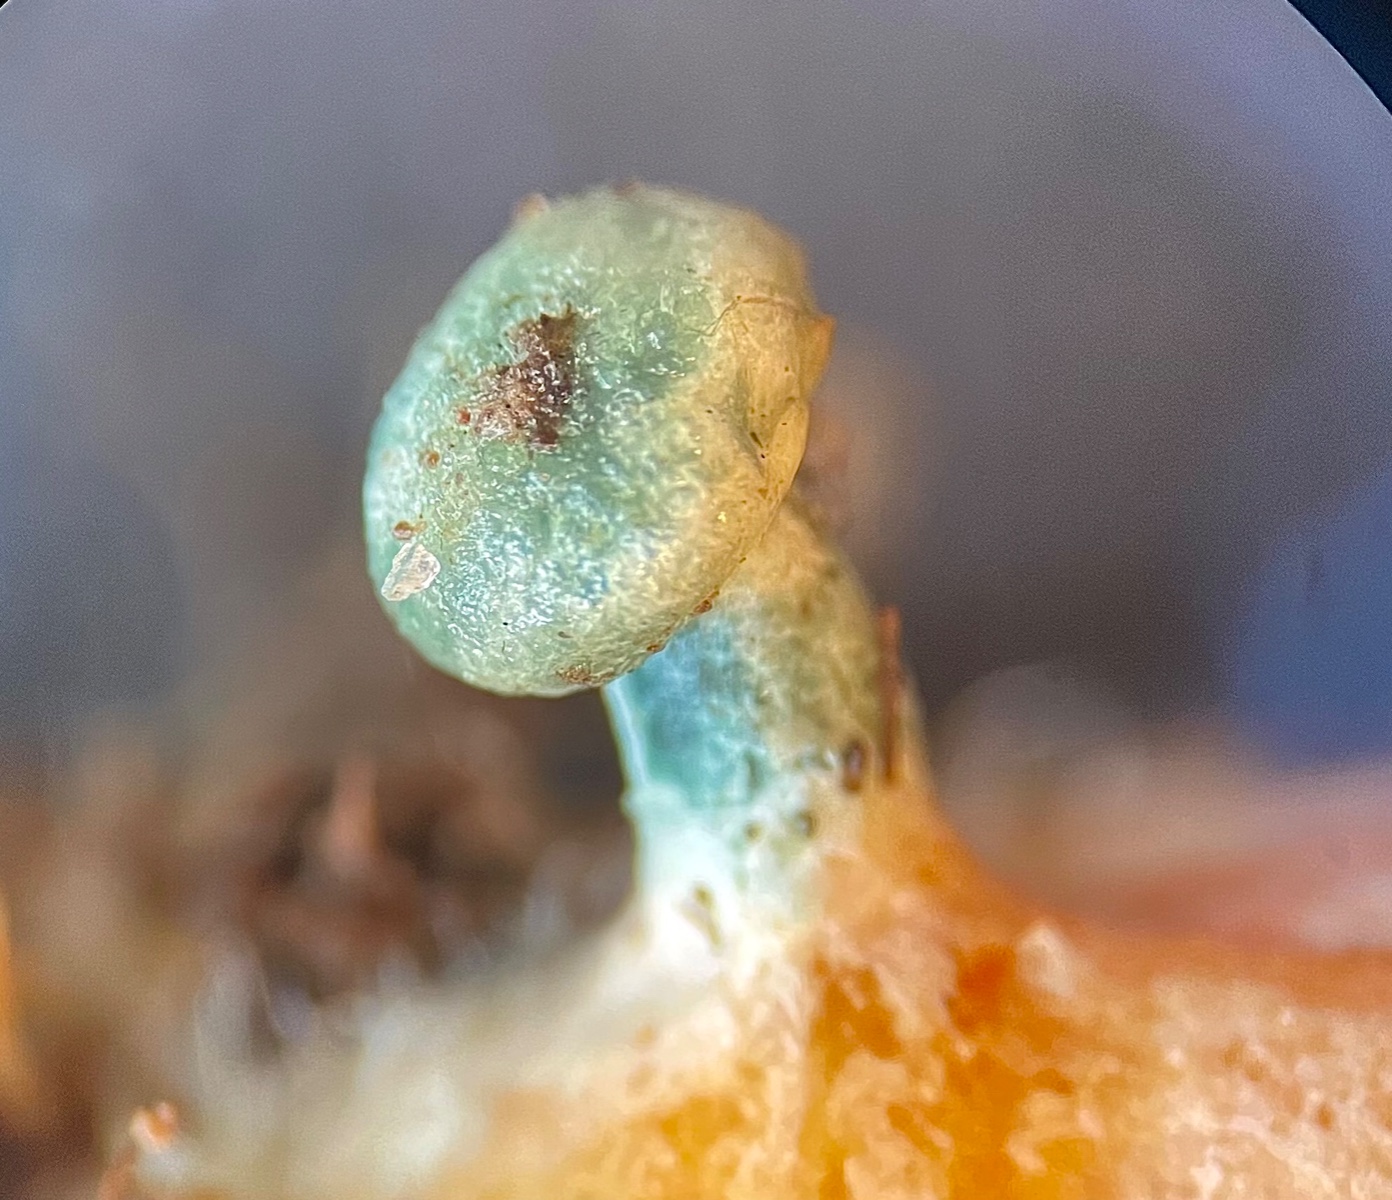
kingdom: Fungi
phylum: Basidiomycota
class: Agaricomycetes
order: Russulales
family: Russulaceae
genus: Lactarius
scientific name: Lactarius deliciosus
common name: velsmagende mælkehat
